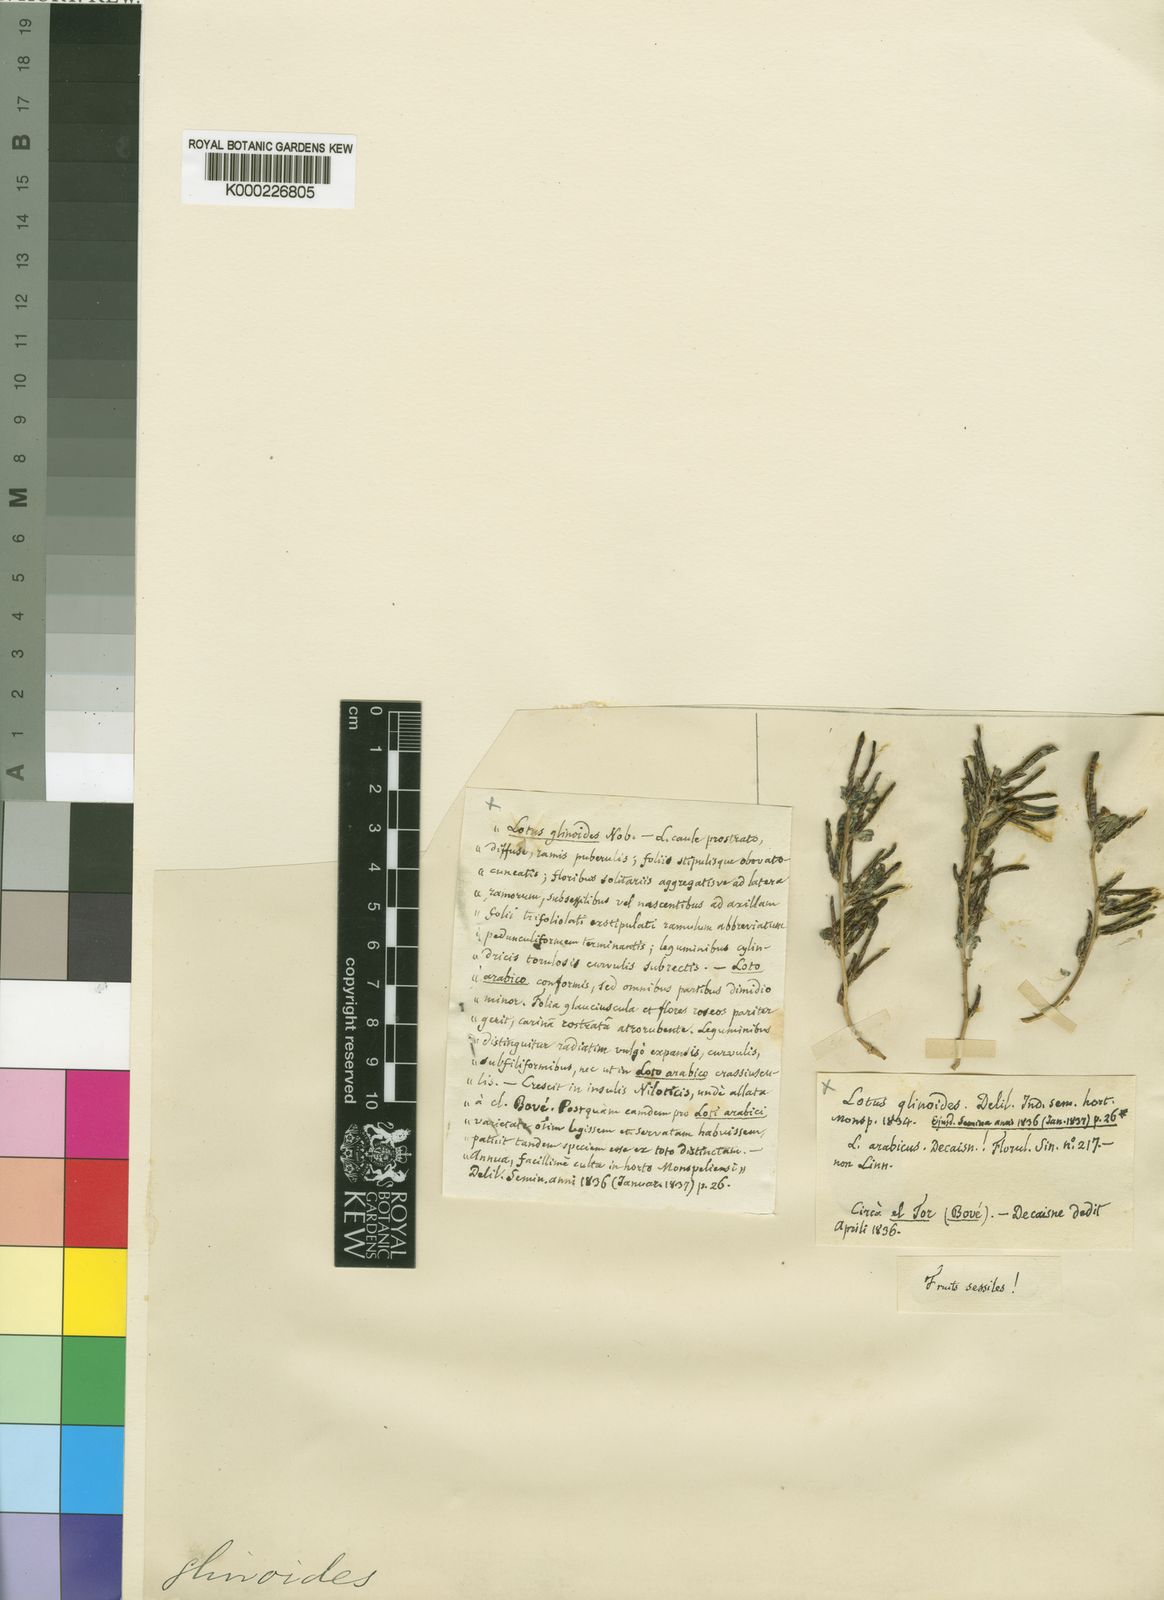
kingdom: Plantae
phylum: Tracheophyta
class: Magnoliopsida
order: Fabales
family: Fabaceae
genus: Lotus
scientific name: Lotus glinoides
